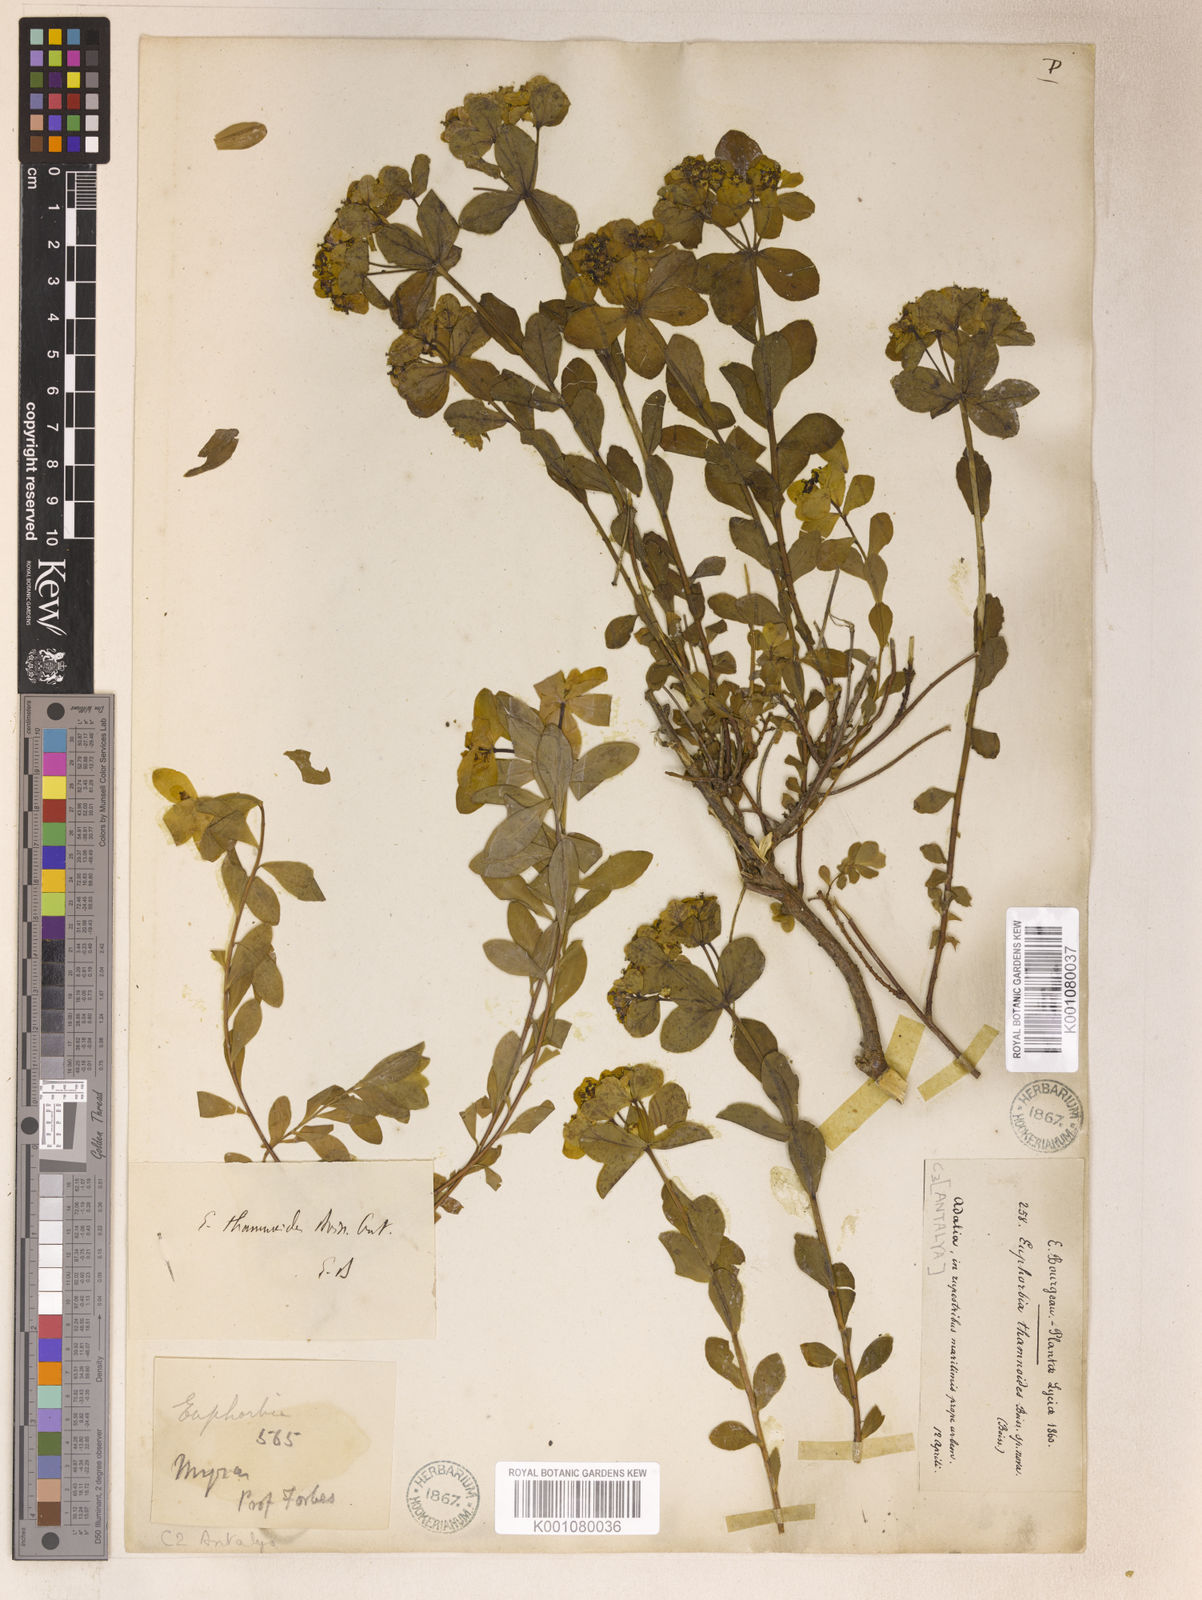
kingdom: Plantae
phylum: Tracheophyta
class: Magnoliopsida
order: Malpighiales
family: Euphorbiaceae
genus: Euphorbia
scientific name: Euphorbia hierosolymitana
